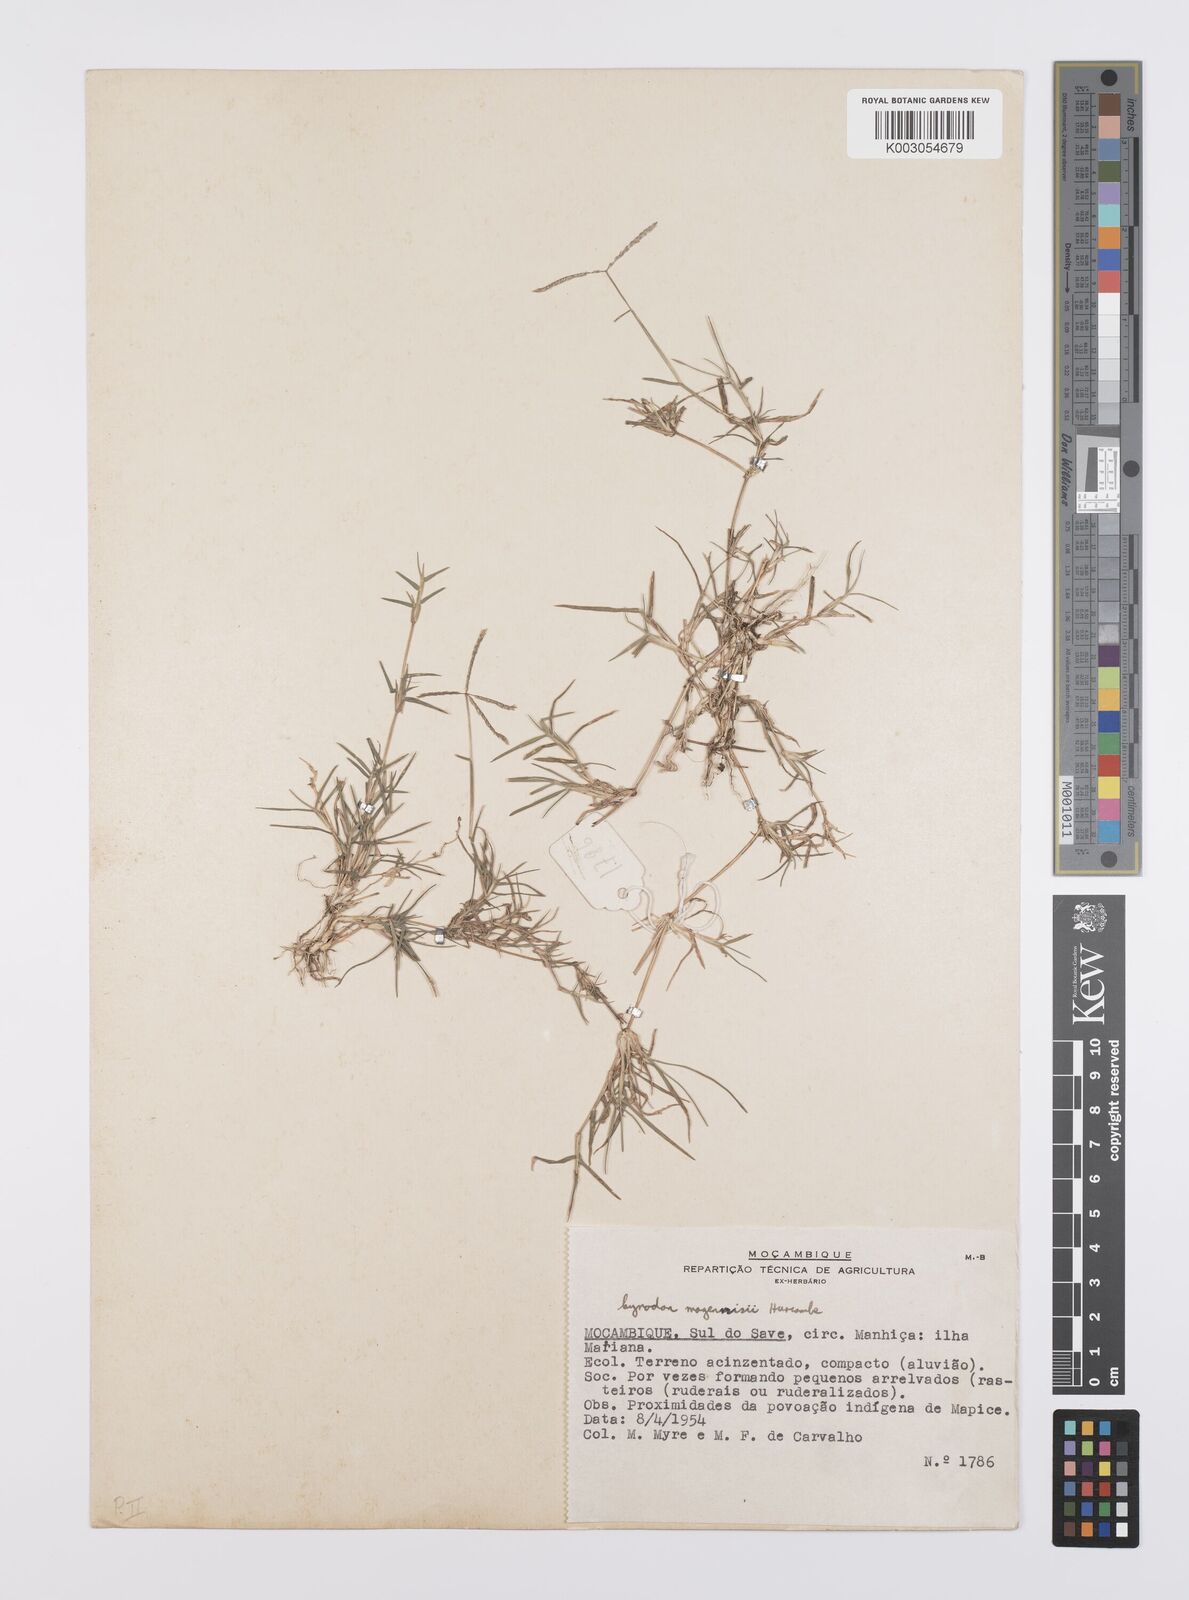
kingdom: Plantae
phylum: Tracheophyta
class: Liliopsida
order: Poales
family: Poaceae
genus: Cynodon
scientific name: Cynodon magennisii
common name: Bermudagrass
